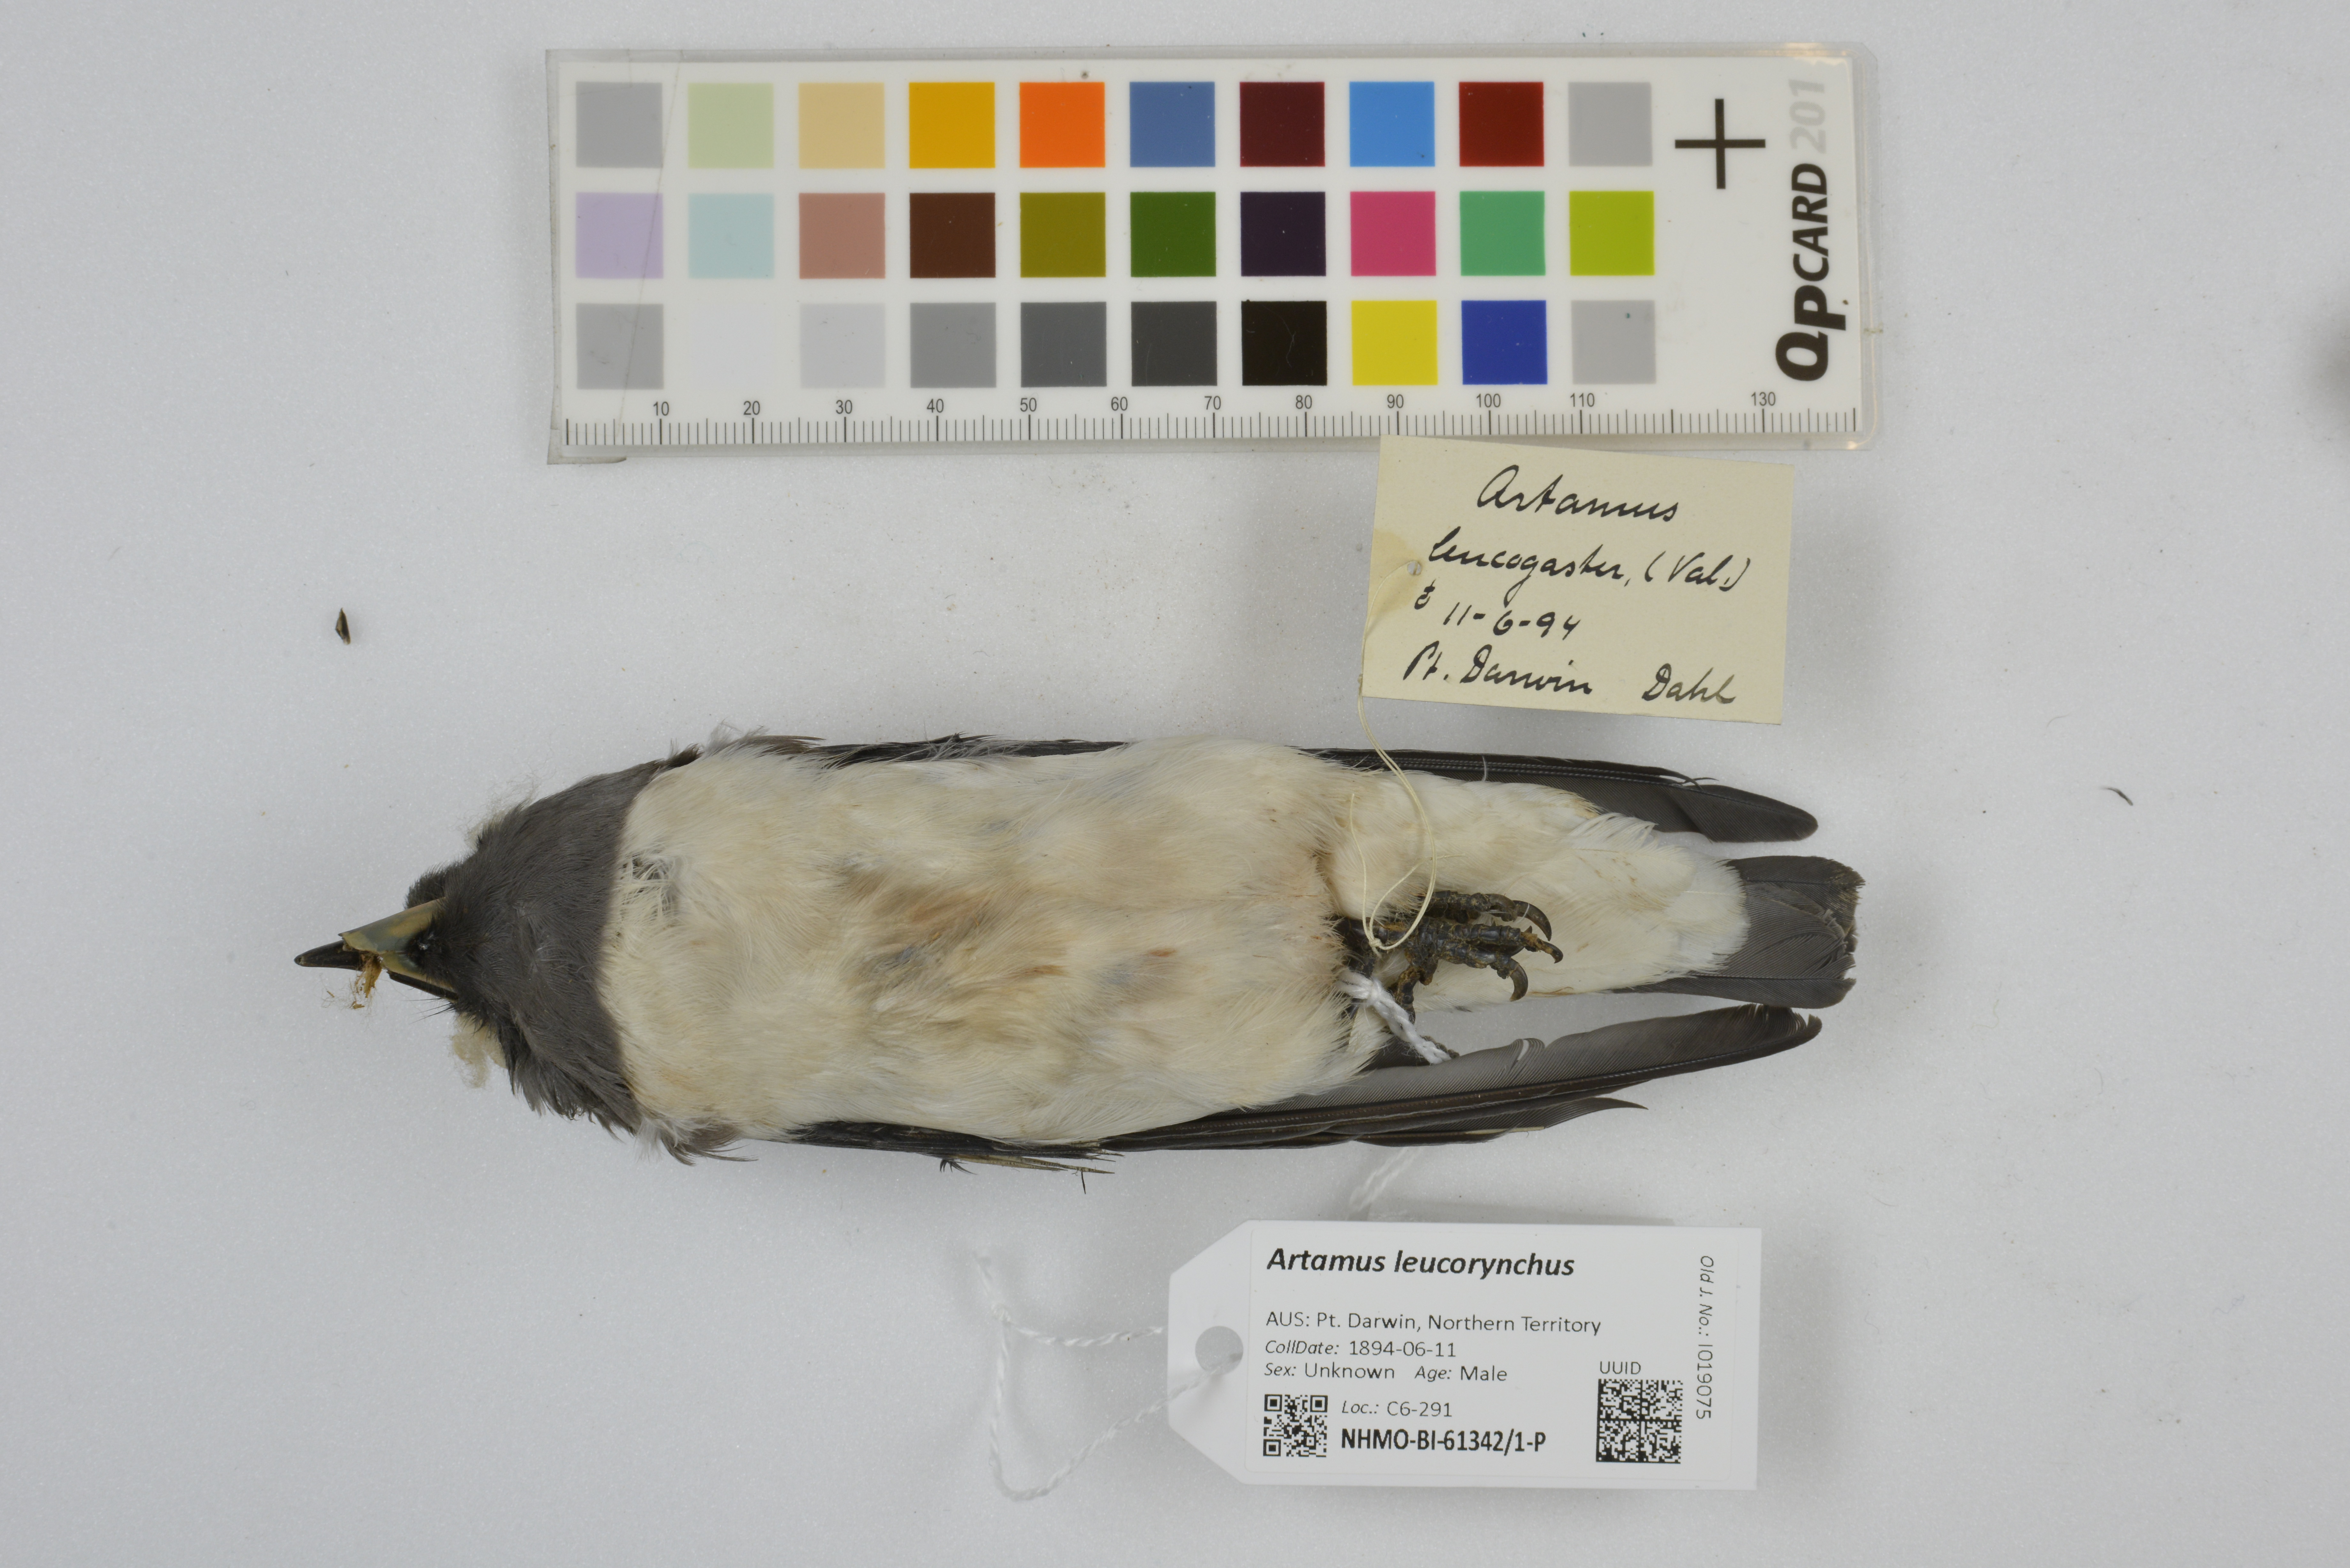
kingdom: Animalia
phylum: Chordata
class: Aves
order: Passeriformes
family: Artamidae
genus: Artamus
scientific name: Artamus leucoryn
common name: White-breasted woodswallow
